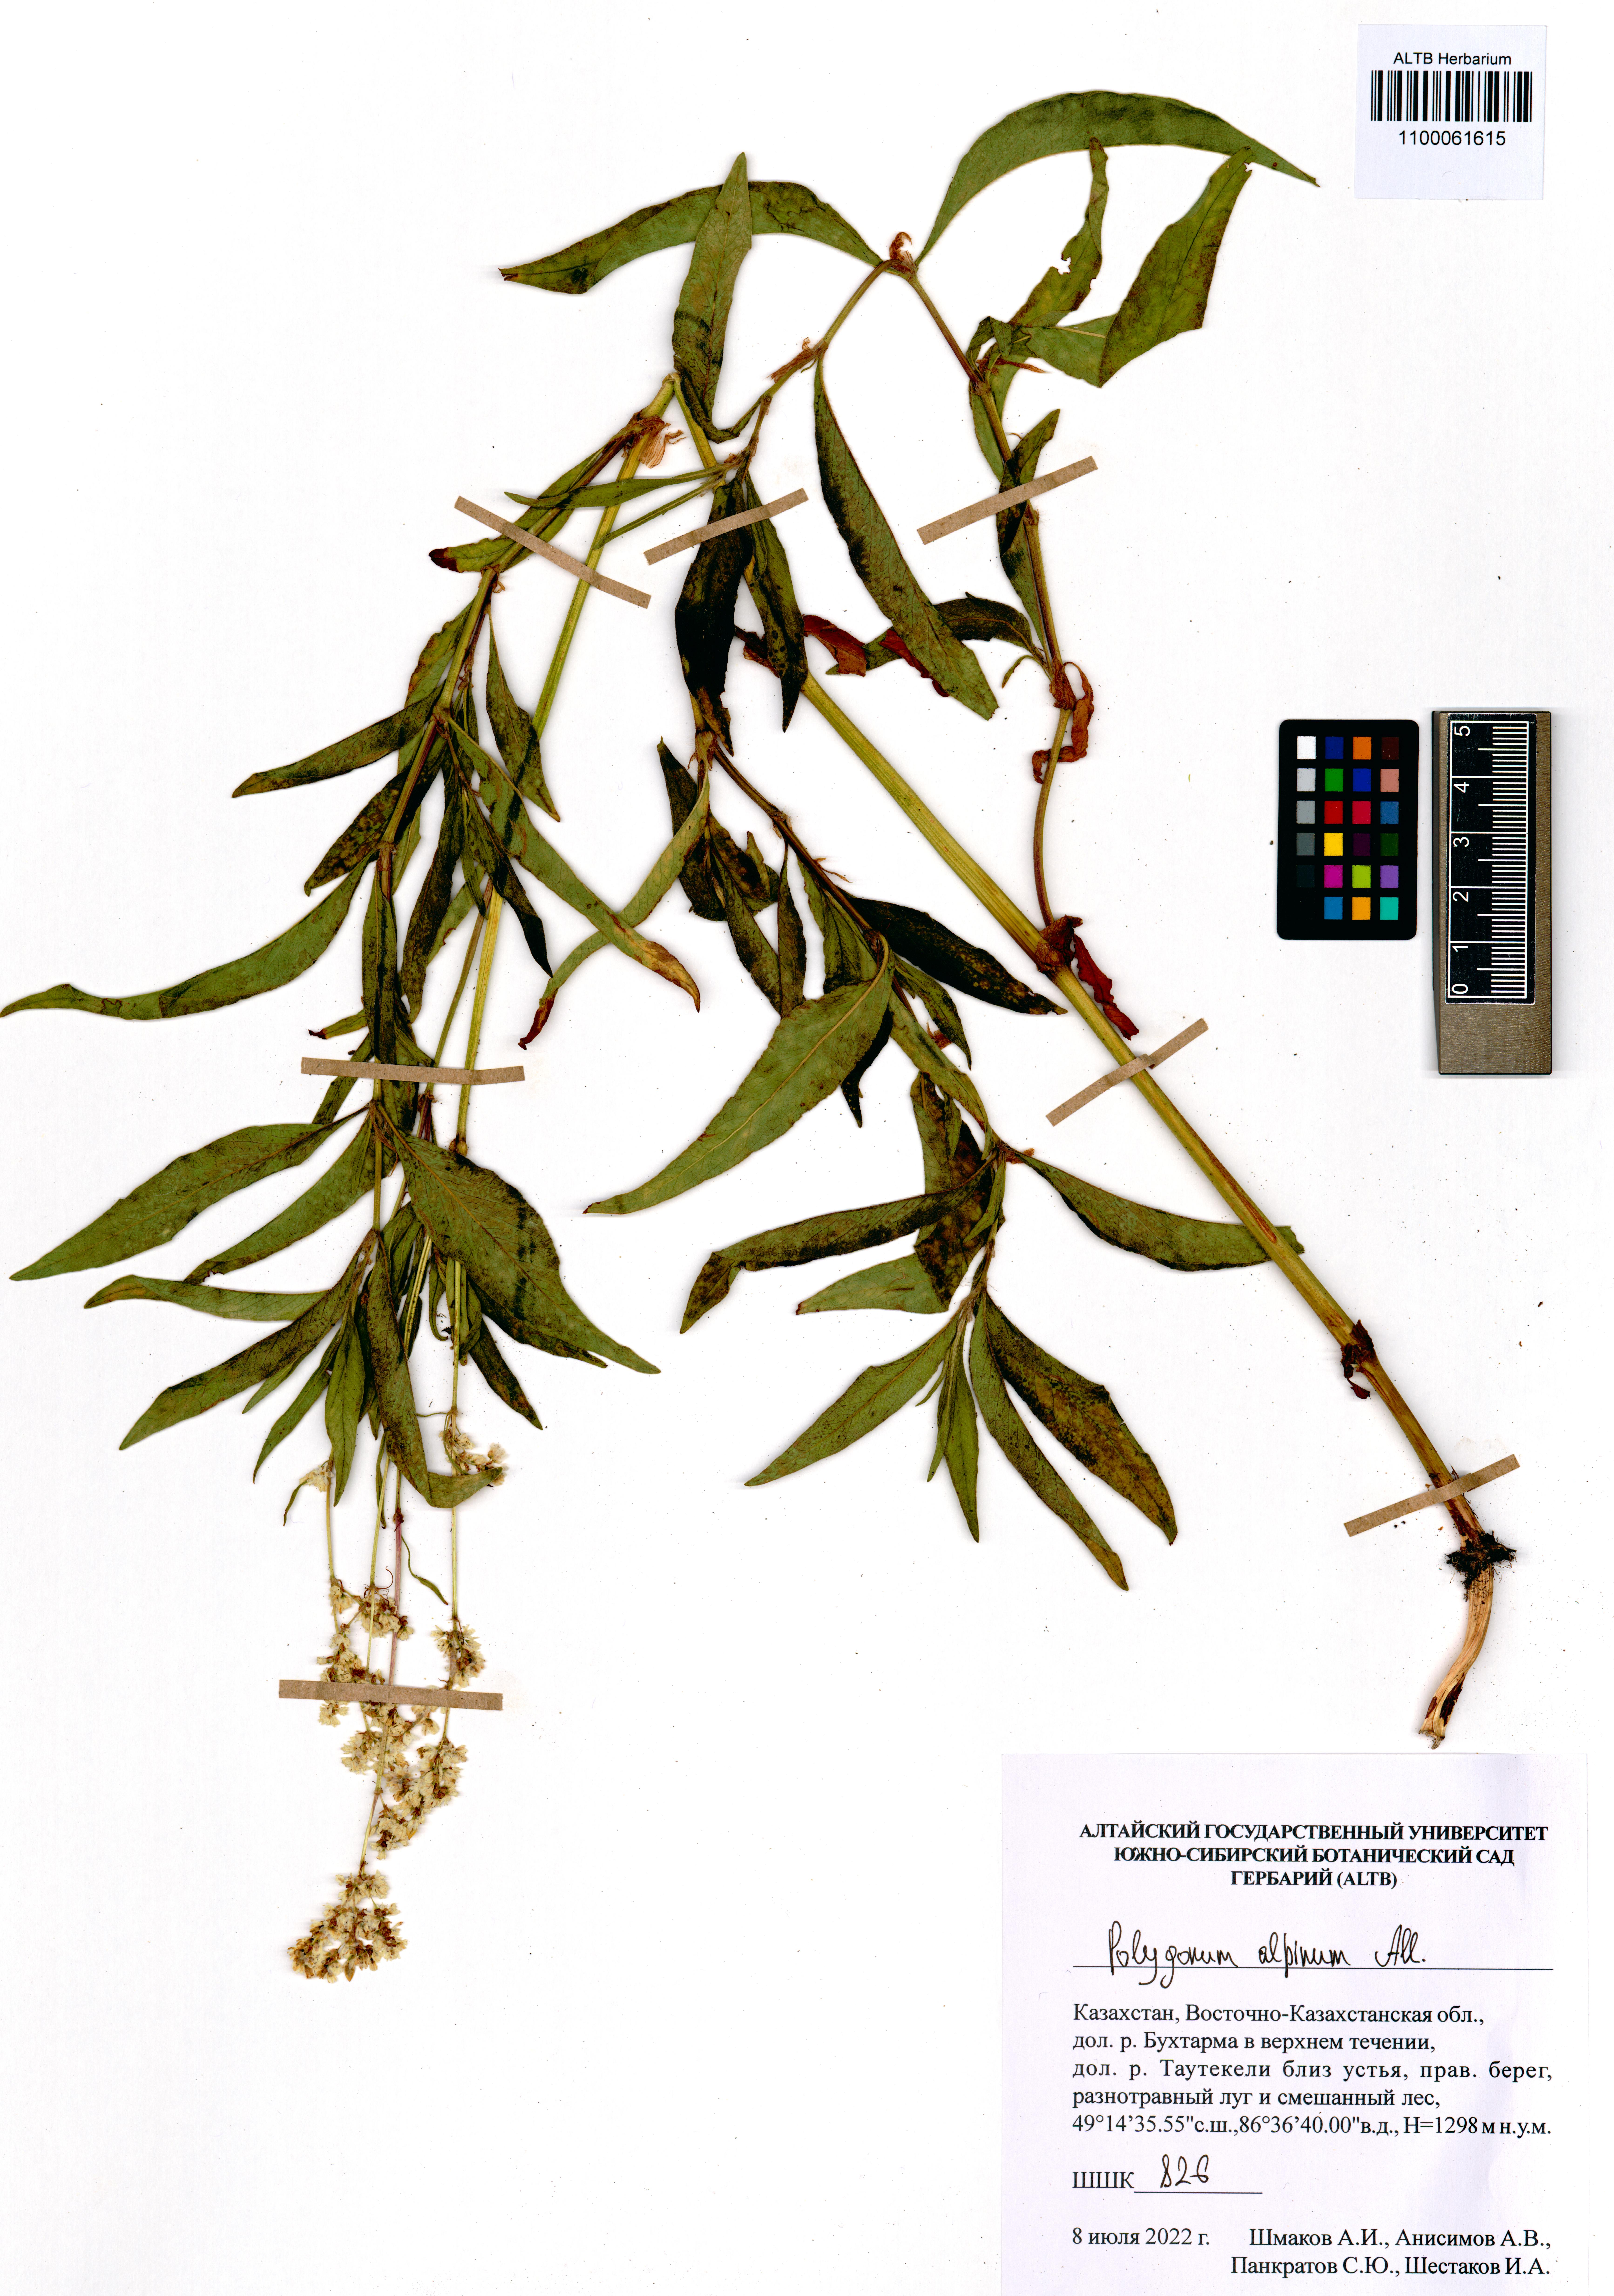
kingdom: Plantae
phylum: Tracheophyta
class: Magnoliopsida
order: Caryophyllales
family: Polygonaceae
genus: Koenigia
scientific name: Koenigia alpina
